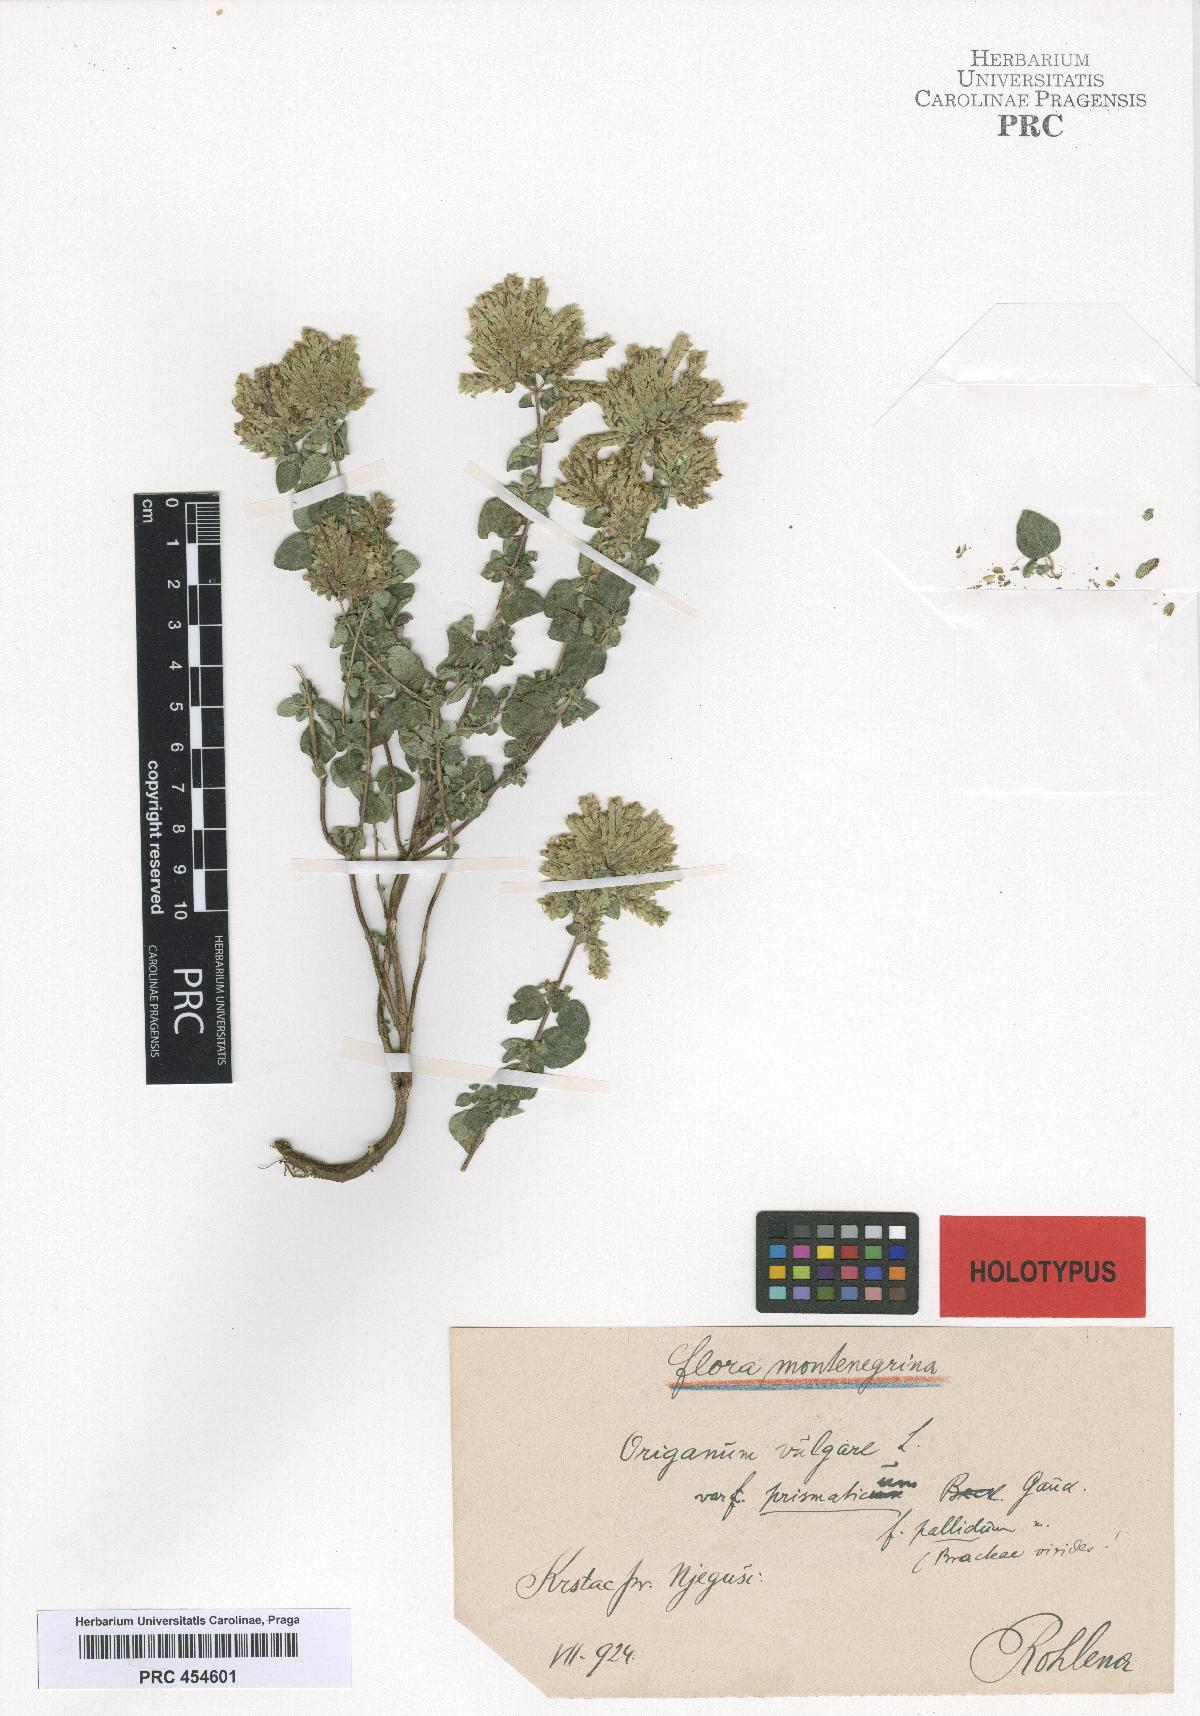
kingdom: Plantae
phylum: Tracheophyta
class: Magnoliopsida
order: Lamiales
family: Lamiaceae
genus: Origanum
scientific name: Origanum vulgare
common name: Wild marjoram
